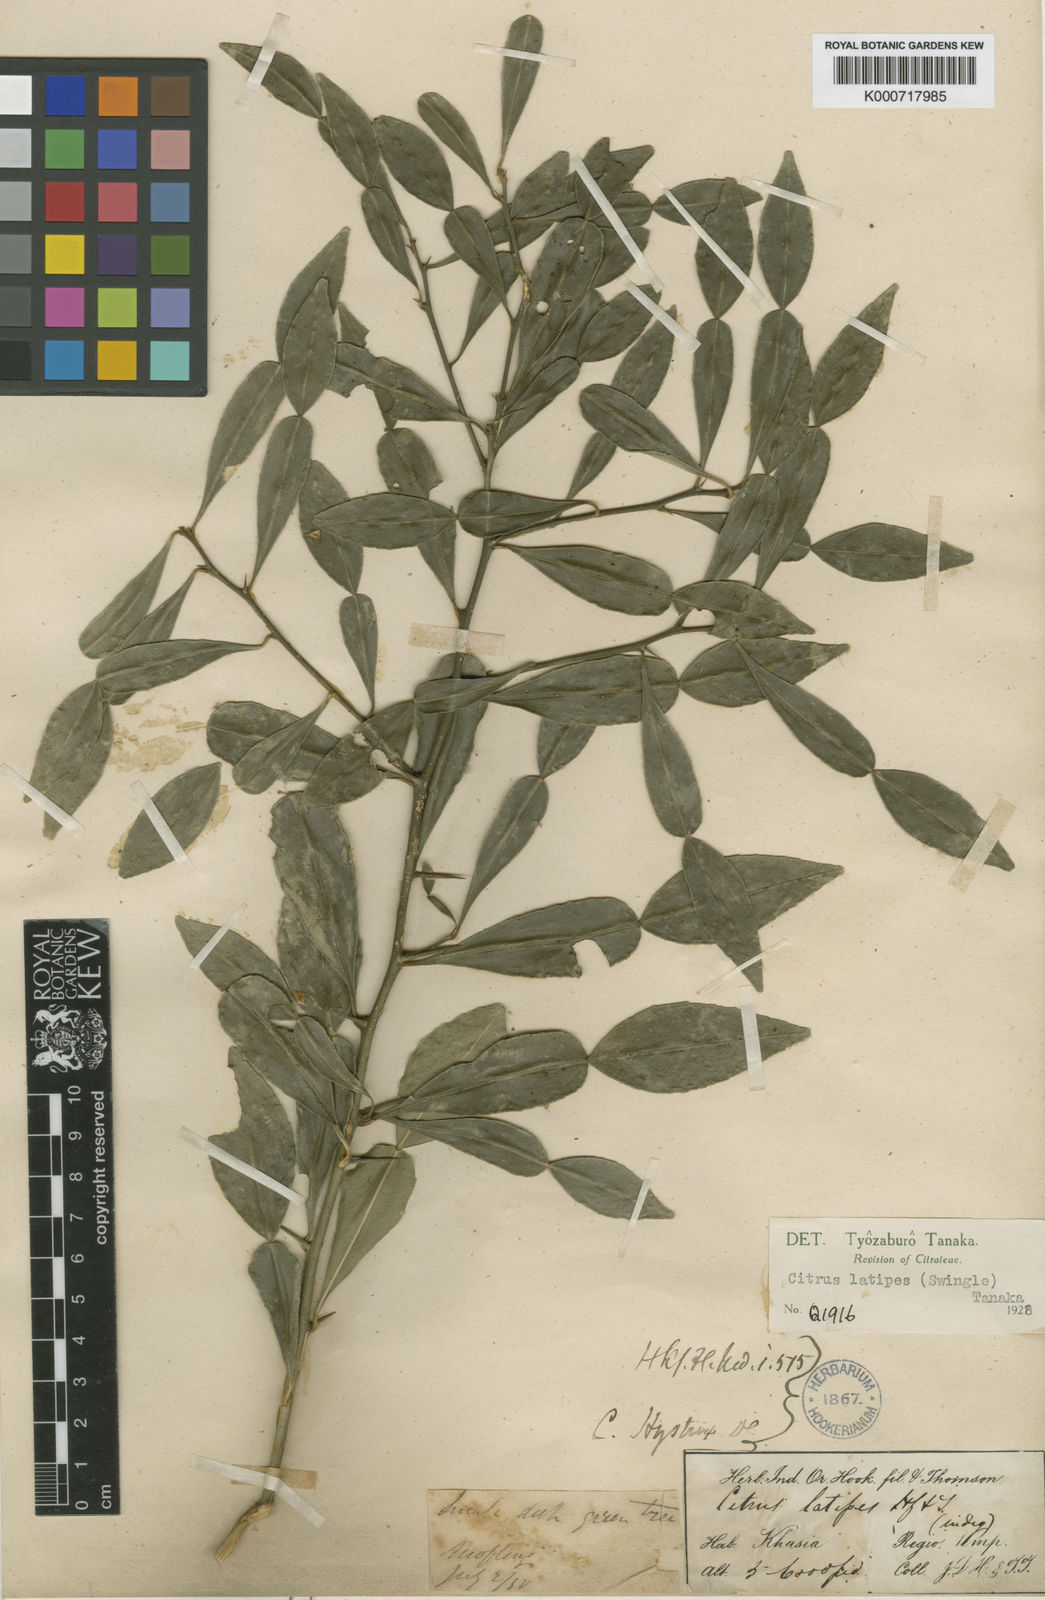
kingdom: Plantae
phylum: Tracheophyta
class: Magnoliopsida
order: Sapindales
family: Rutaceae
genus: Citrus
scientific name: Citrus latipes
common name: Khasi-papeda
